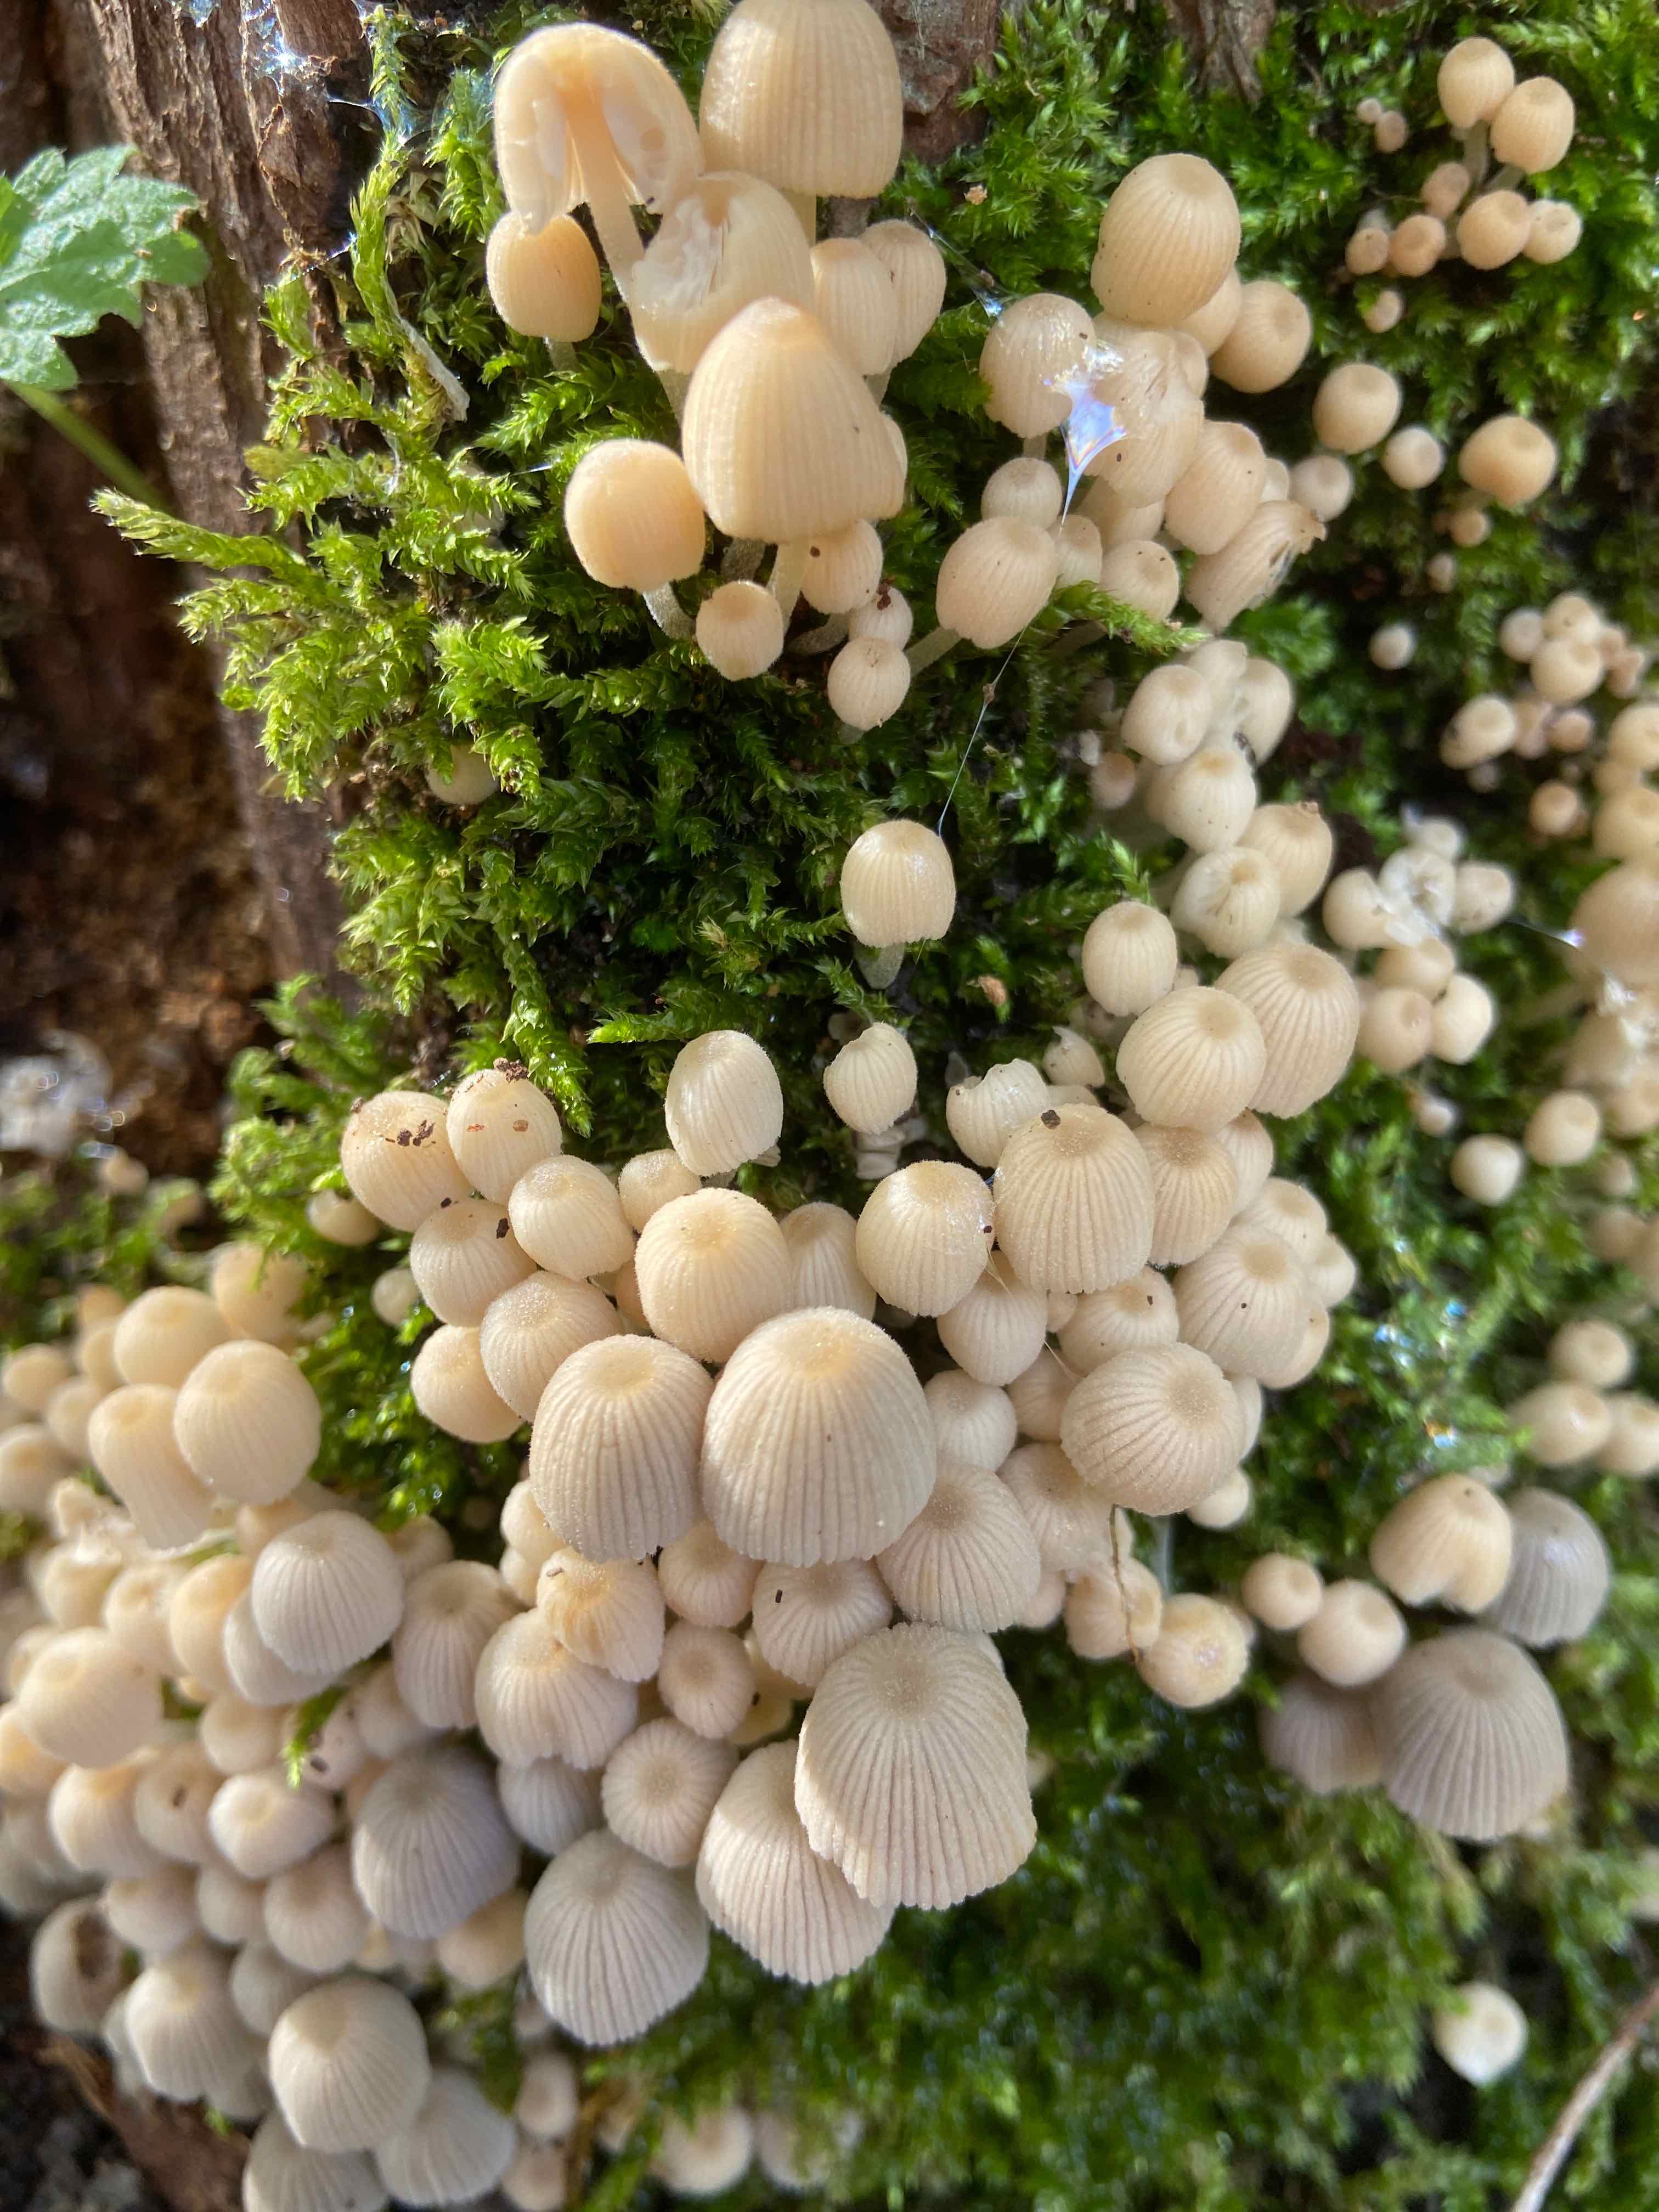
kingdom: Fungi
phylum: Basidiomycota
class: Agaricomycetes
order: Agaricales
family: Psathyrellaceae
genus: Coprinellus
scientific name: Coprinellus disseminatus
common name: bredsået blækhat
